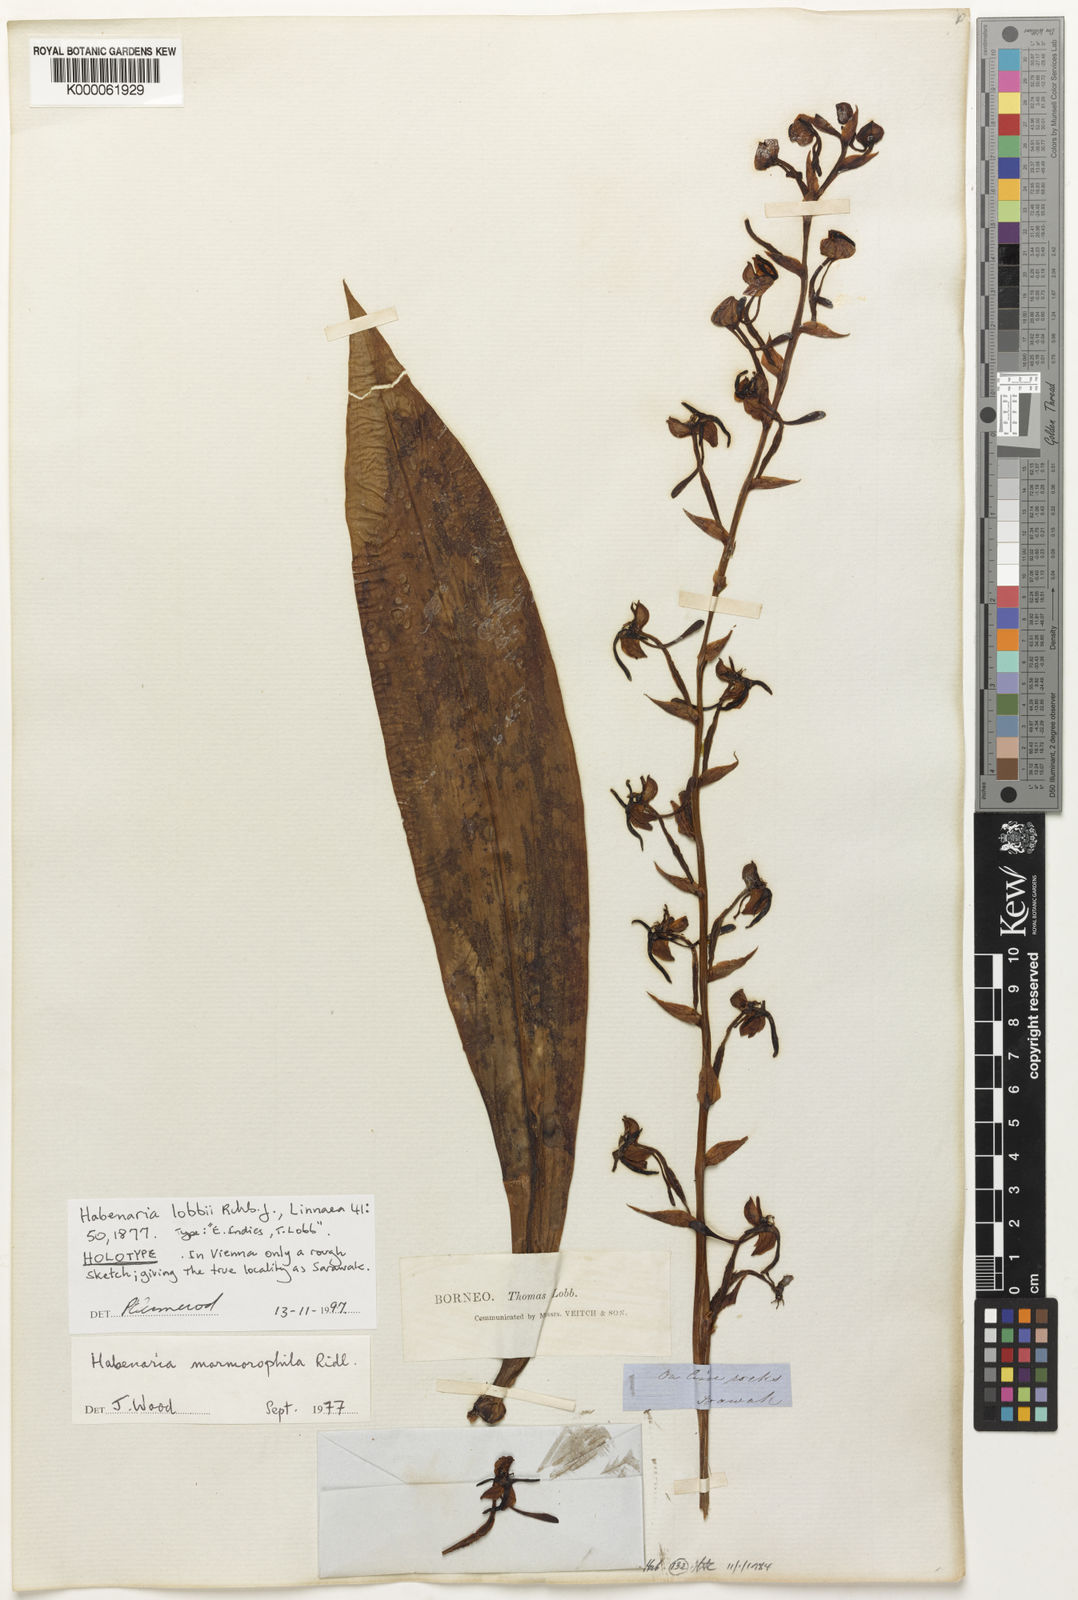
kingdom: Plantae
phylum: Tracheophyta
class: Liliopsida
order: Asparagales
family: Orchidaceae
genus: Habenaria
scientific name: Habenaria lobbii
